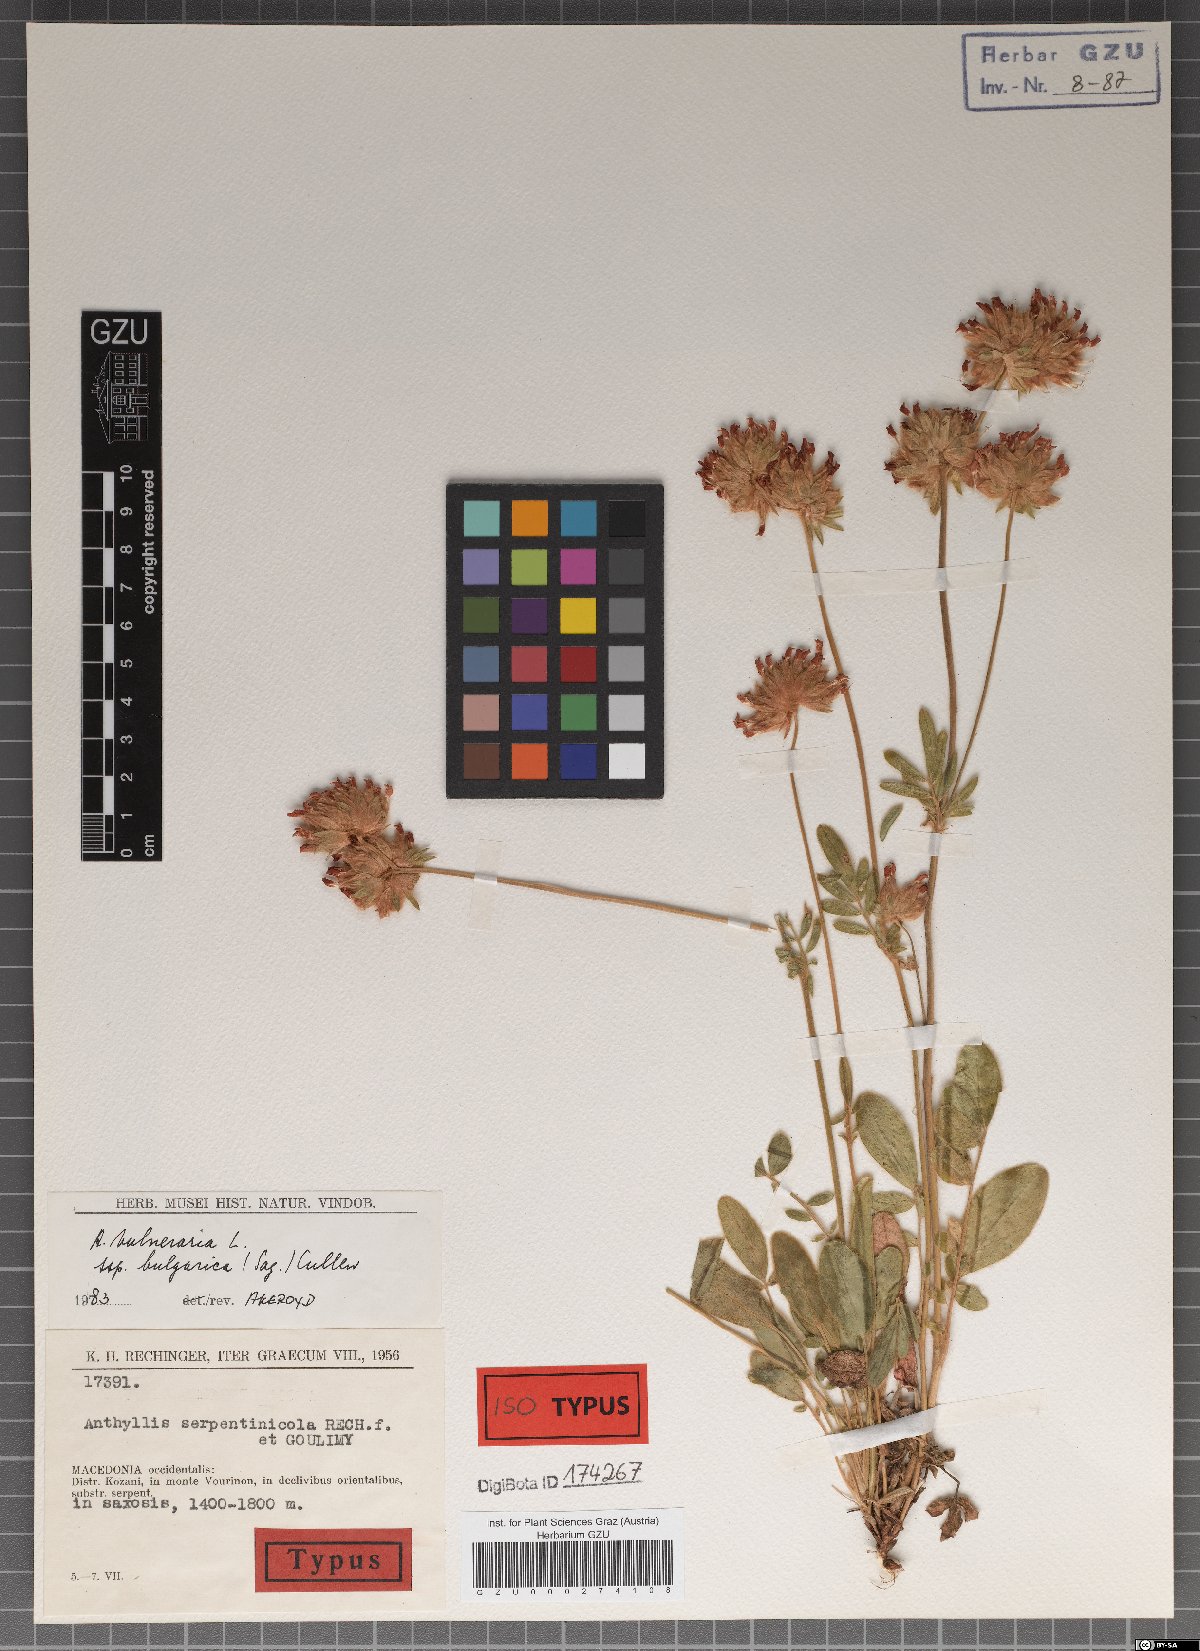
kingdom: Plantae
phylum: Tracheophyta
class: Magnoliopsida
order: Fabales
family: Fabaceae
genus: Anthyllis
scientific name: Anthyllis vulneraria
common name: Kidney vetch
